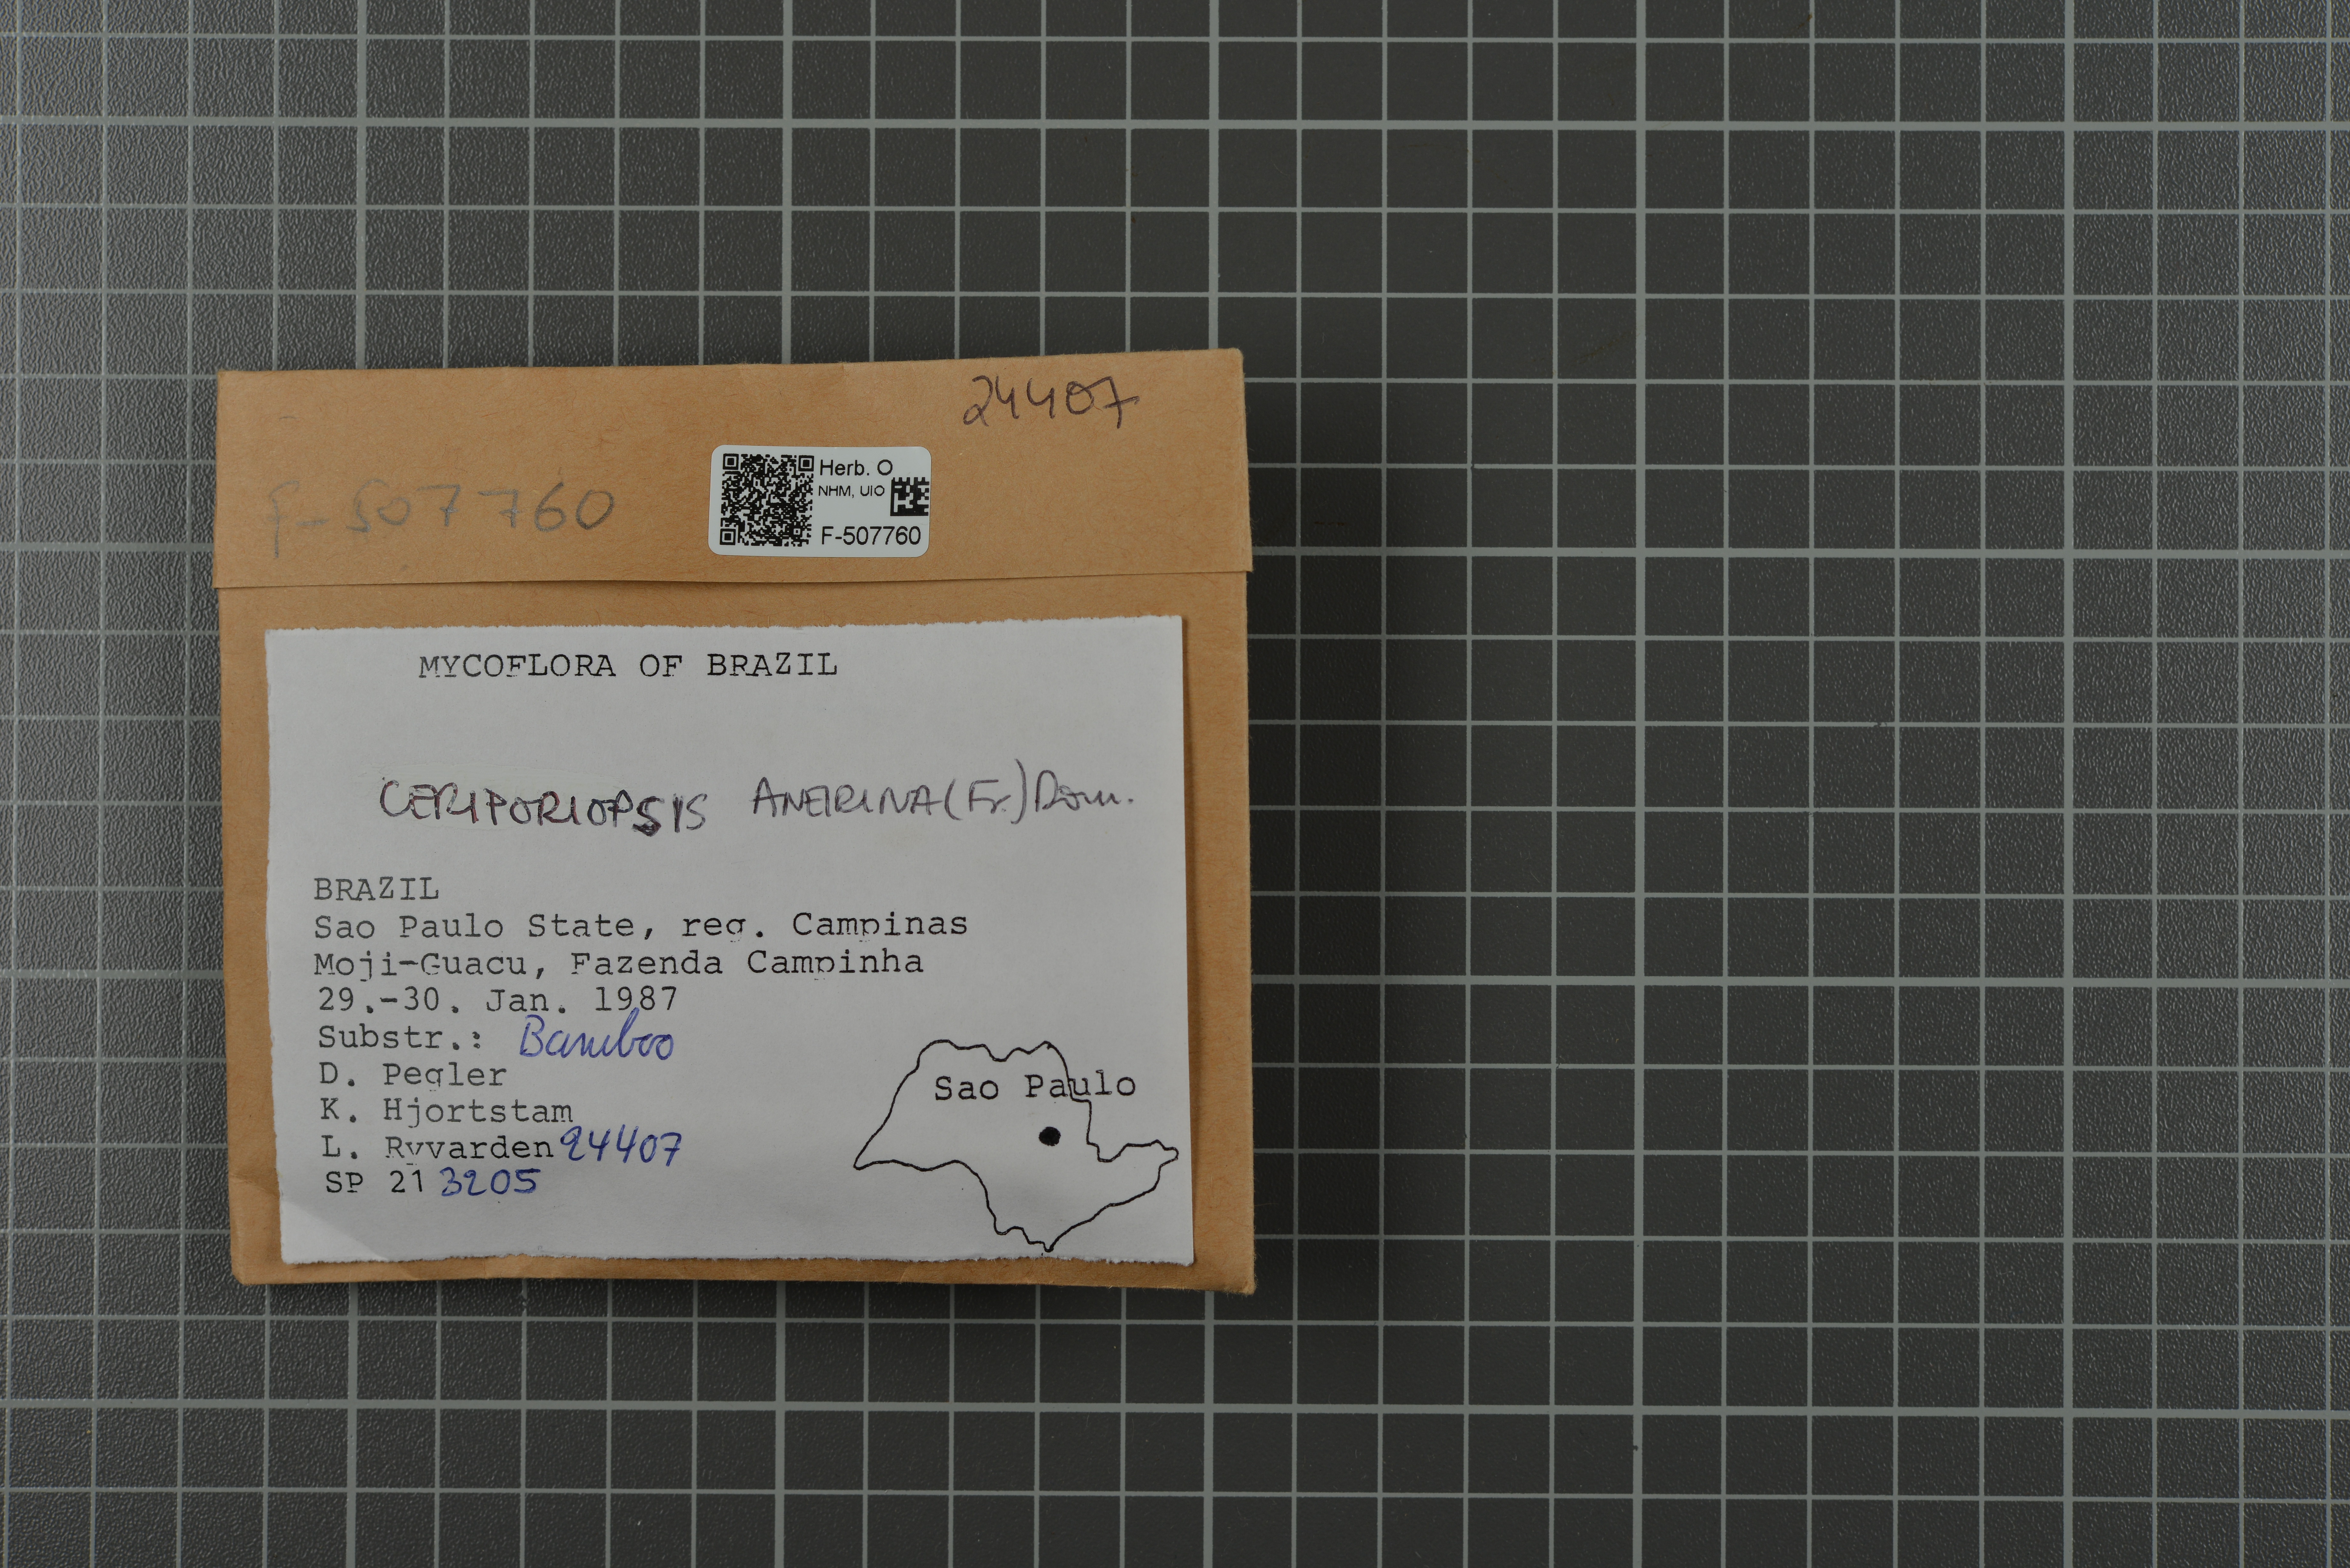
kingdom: Fungi
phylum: Basidiomycota
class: Agaricomycetes
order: Polyporales
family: Cerrenaceae
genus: Raduliporus
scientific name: Raduliporus aneirinus
